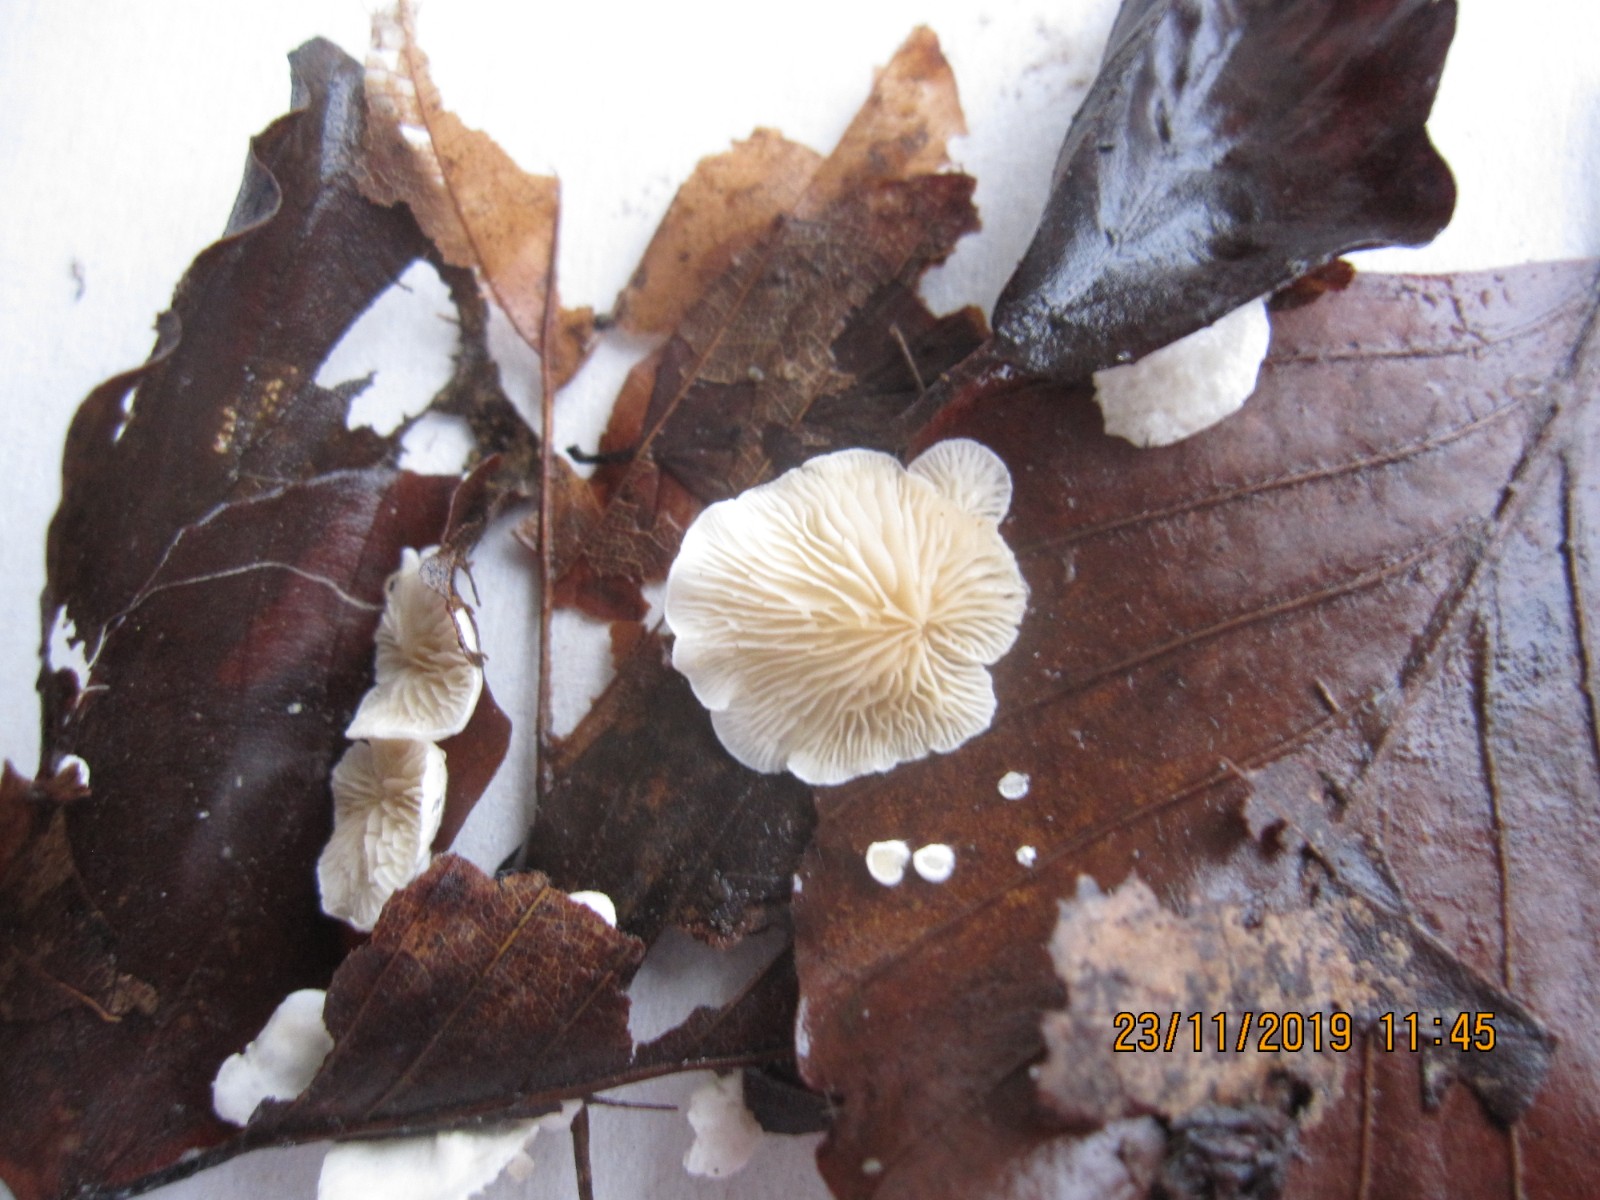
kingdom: Fungi
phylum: Basidiomycota
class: Agaricomycetes
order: Agaricales
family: Crepidotaceae
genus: Crepidotus
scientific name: Crepidotus epibryus
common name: førne-muslingesvamp
